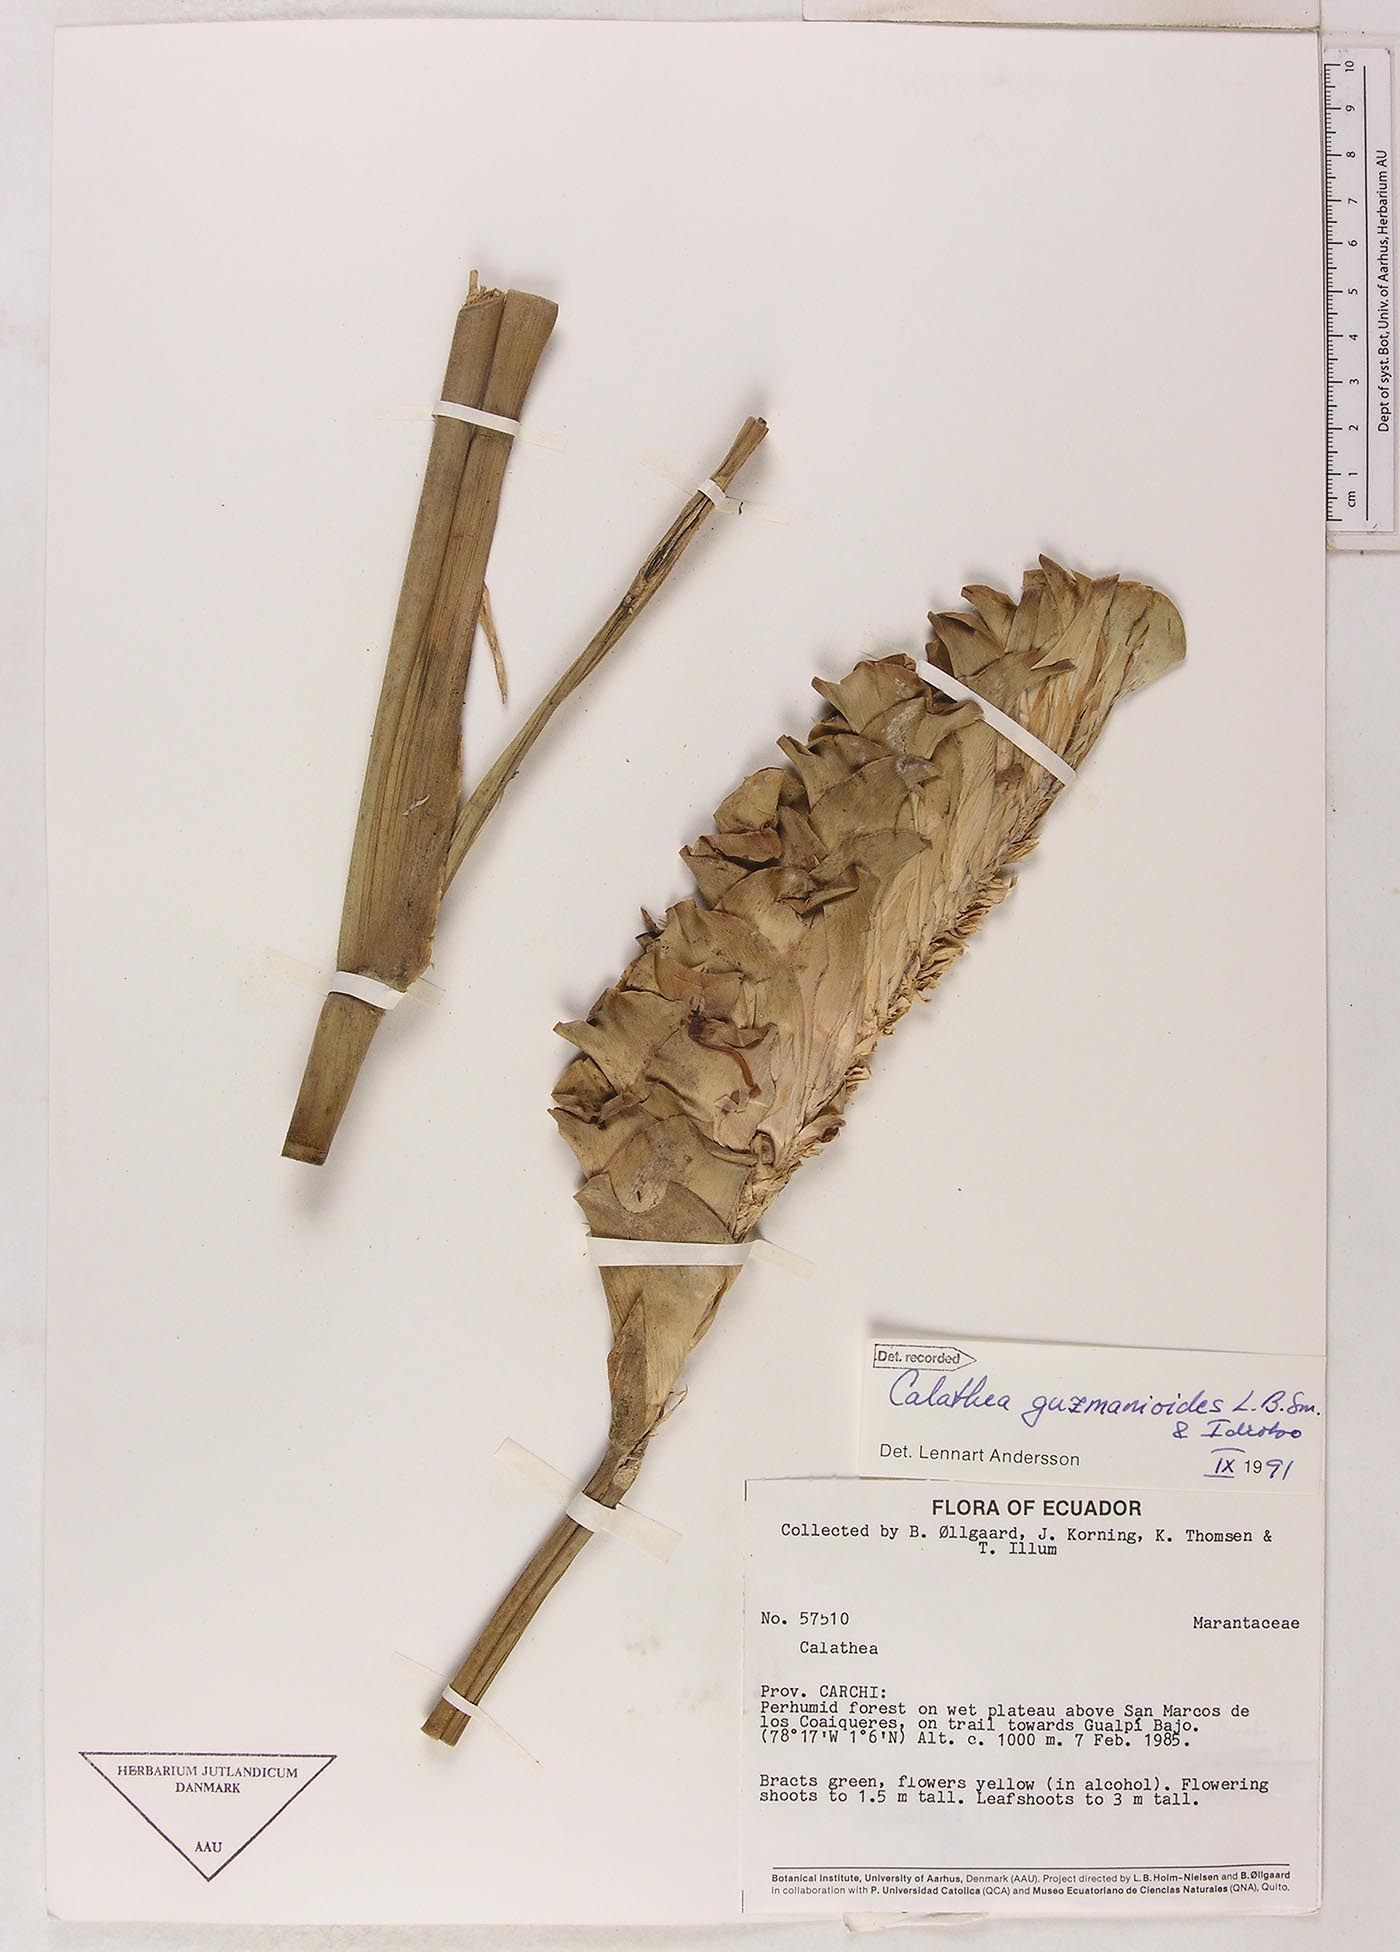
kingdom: Plantae
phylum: Tracheophyta
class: Liliopsida
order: Zingiberales
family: Marantaceae
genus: Calathea
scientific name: Calathea guzmanioides
